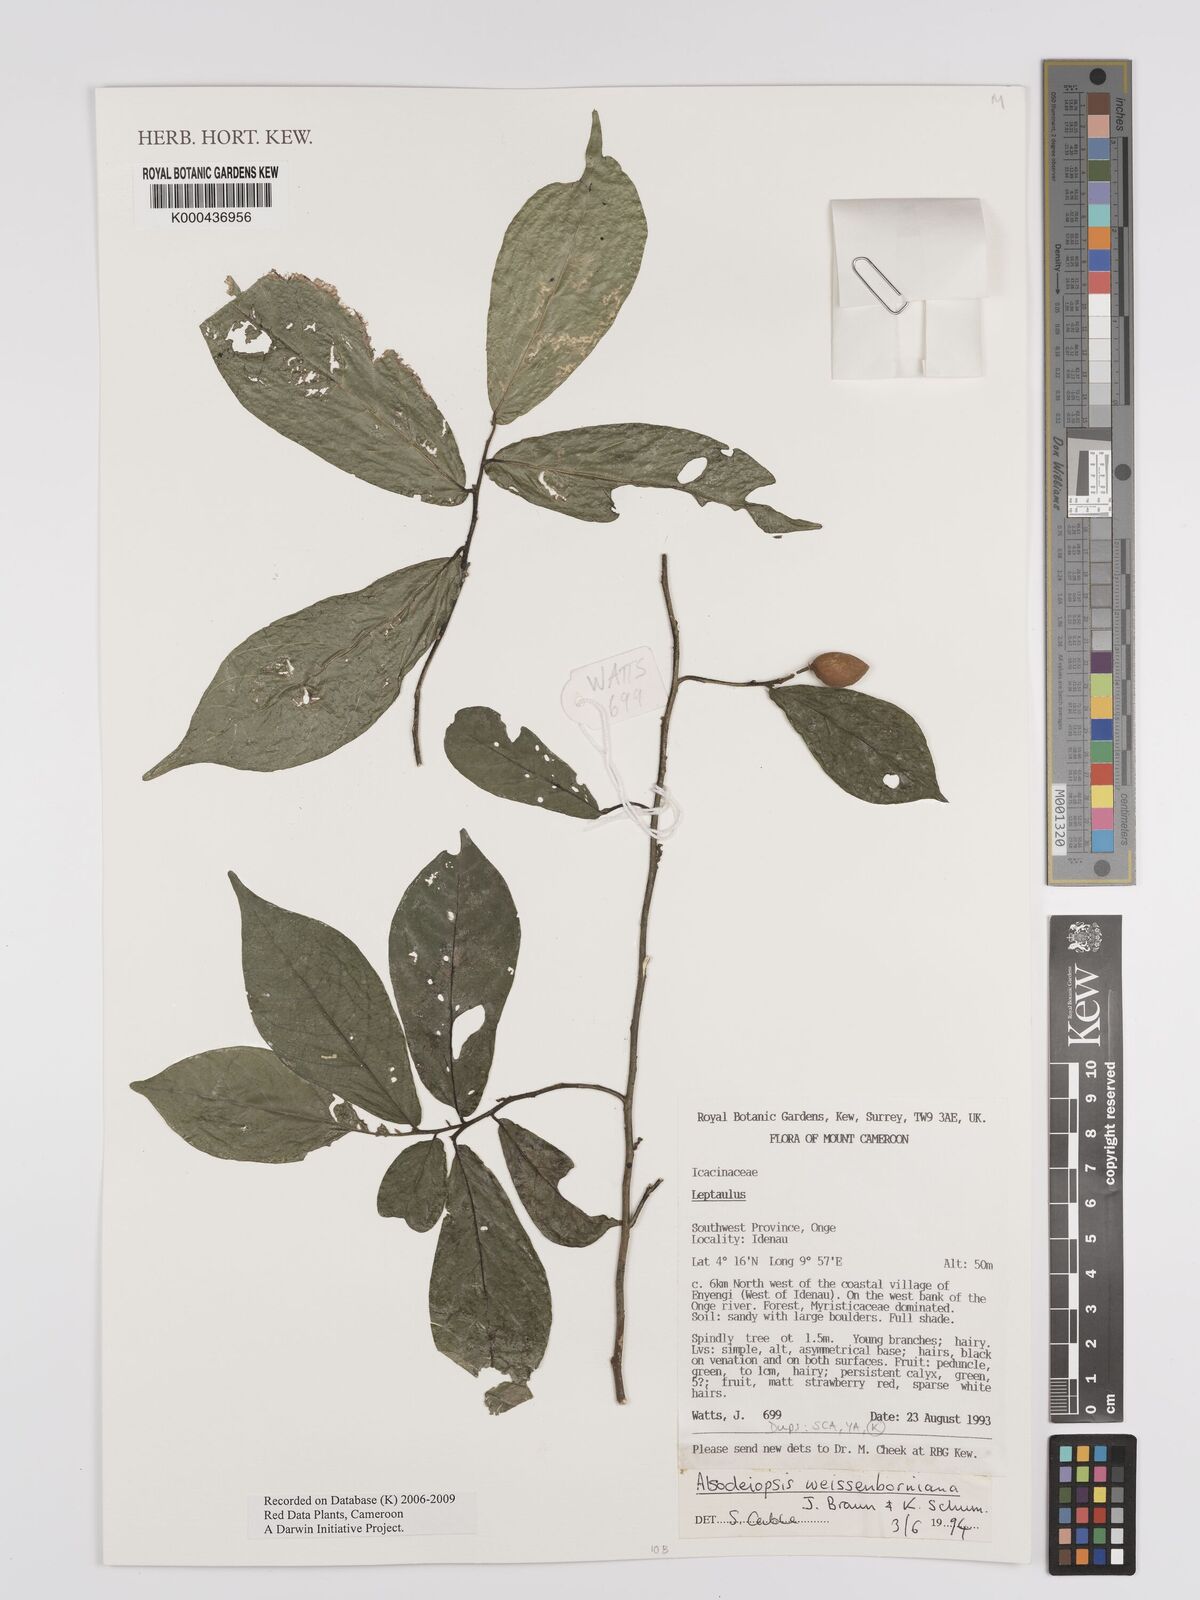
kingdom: Plantae
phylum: Tracheophyta
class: Magnoliopsida
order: Icacinales
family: Icacinaceae
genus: Alsodeiopsis
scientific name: Alsodeiopsis mannii
